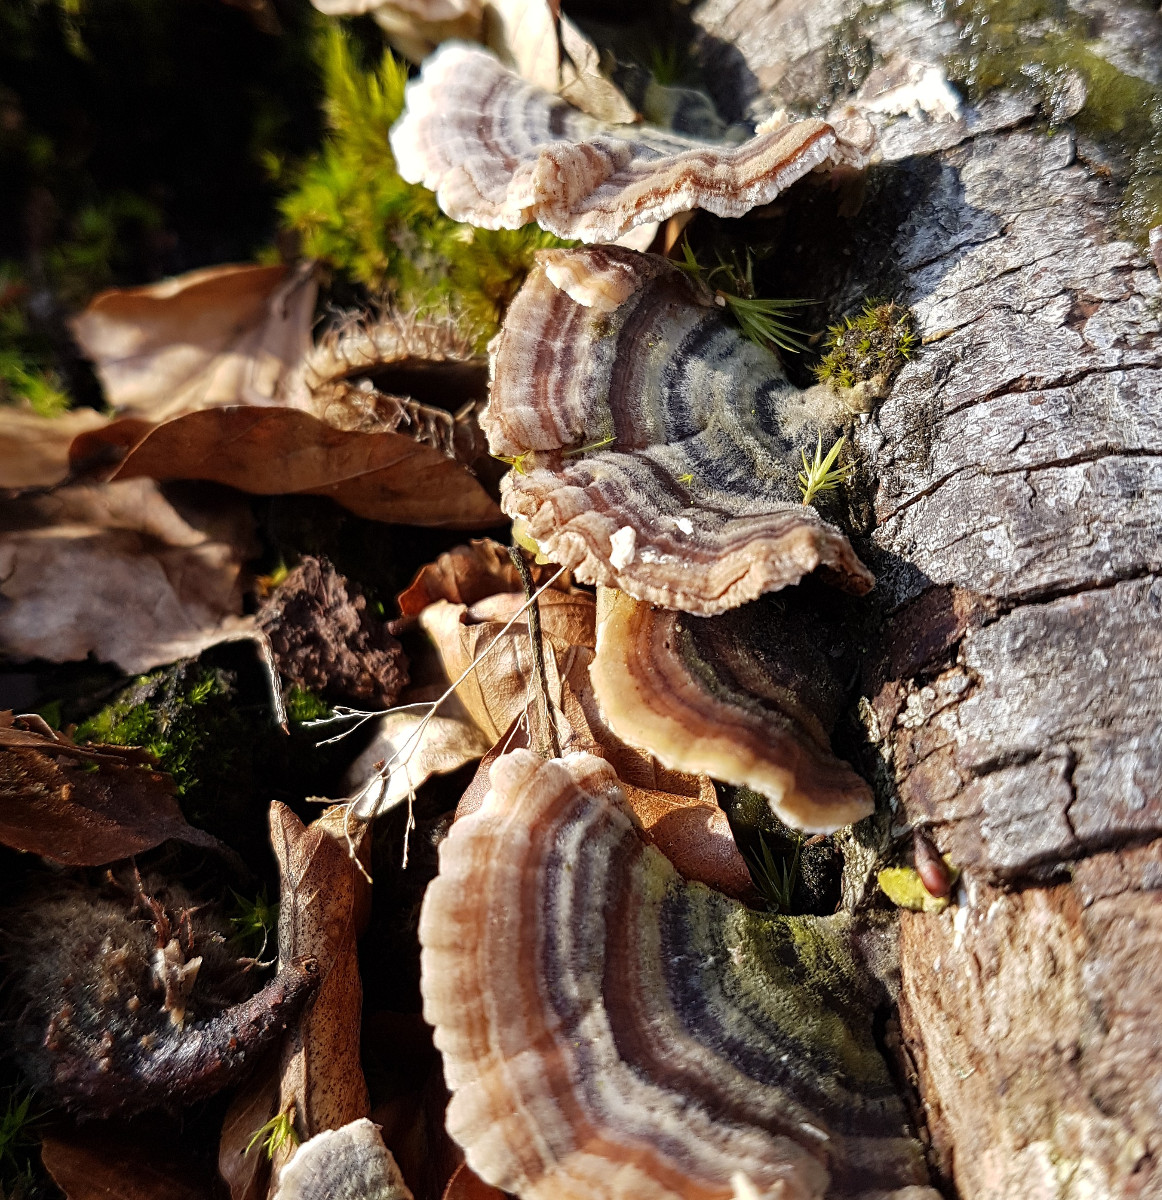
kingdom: Fungi
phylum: Basidiomycota
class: Agaricomycetes
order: Polyporales
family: Polyporaceae
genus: Trametes
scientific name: Trametes versicolor
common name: broget læderporesvamp
